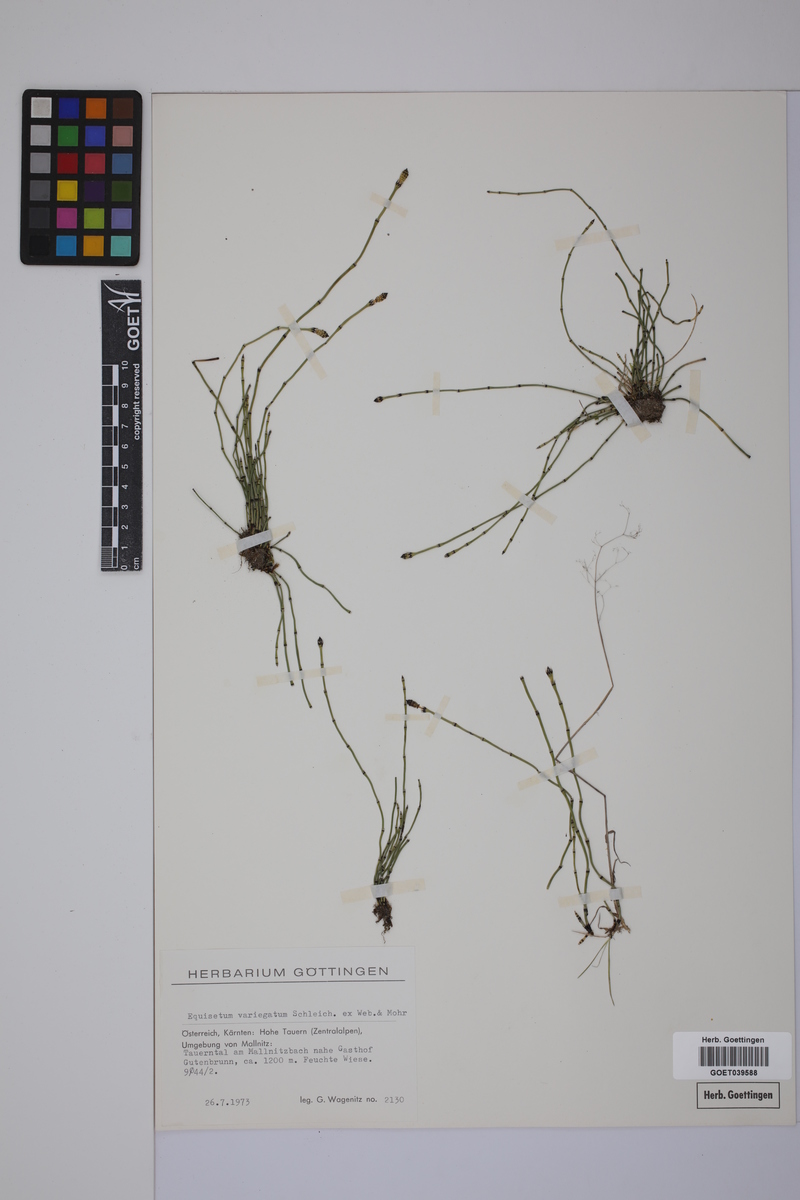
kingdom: Plantae
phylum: Tracheophyta
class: Polypodiopsida
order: Equisetales
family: Equisetaceae
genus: Equisetum
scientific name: Equisetum variegatum
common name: Variegated horsetail
